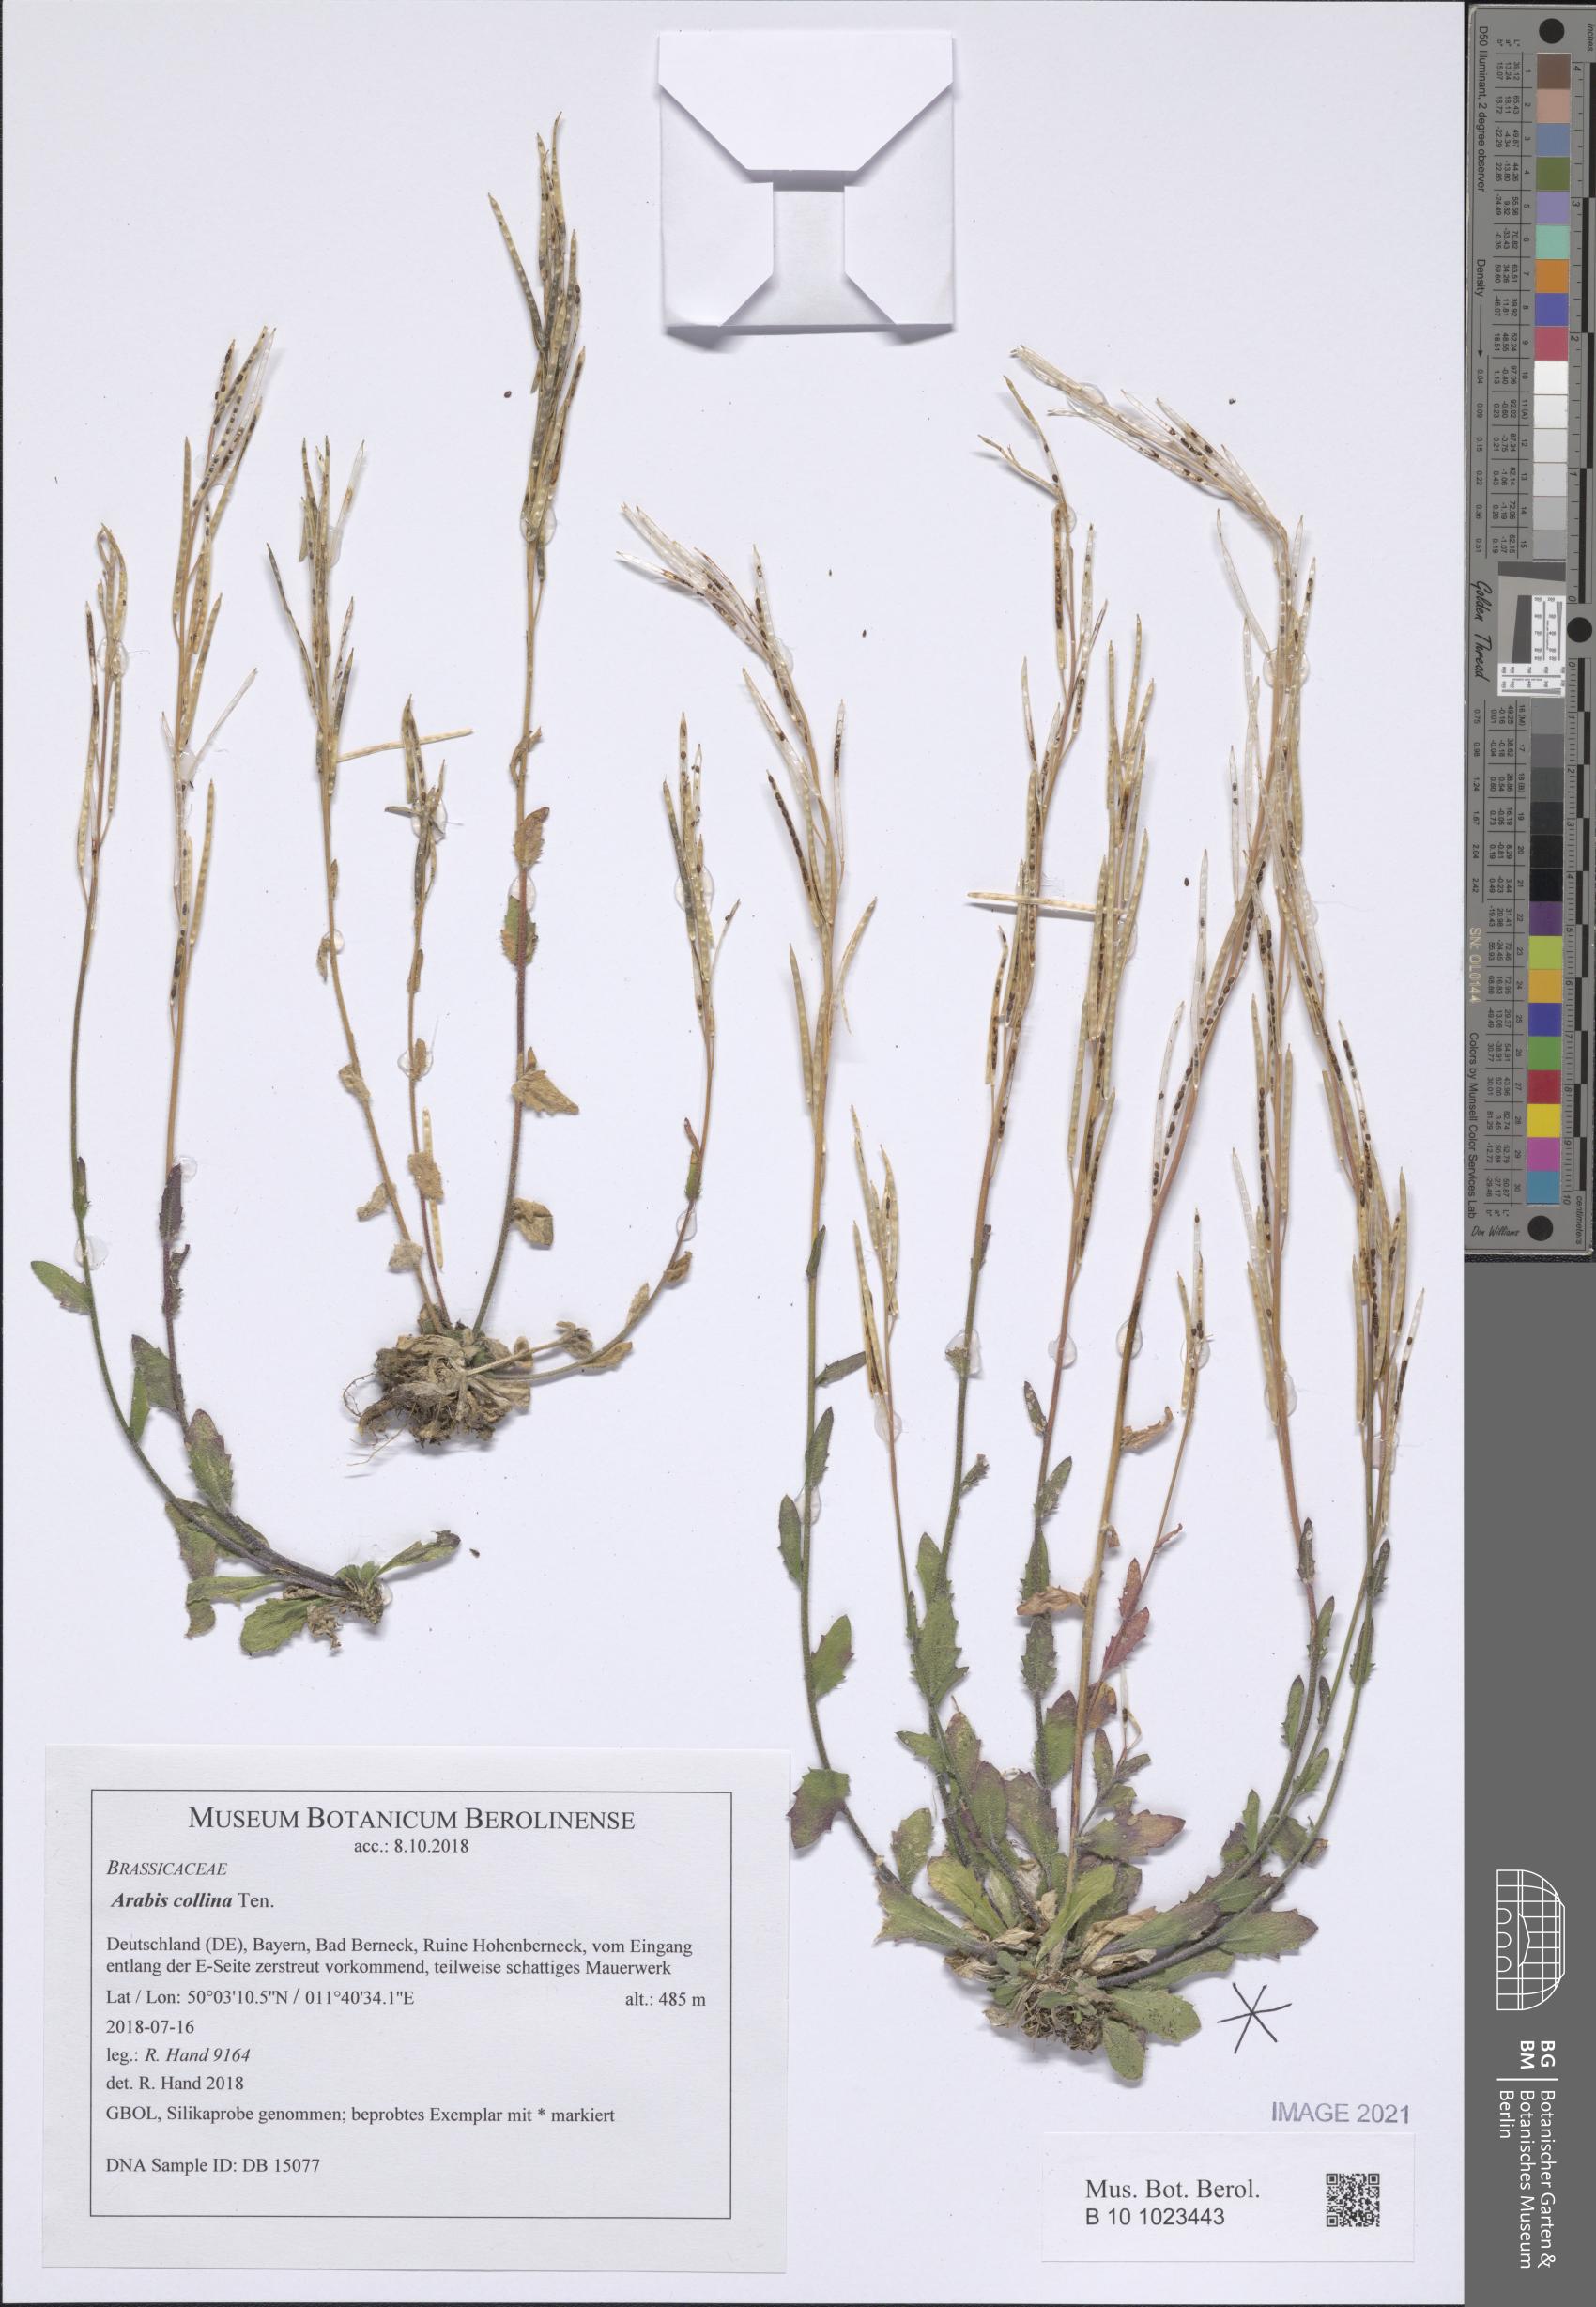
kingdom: Plantae
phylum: Tracheophyta
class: Magnoliopsida
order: Brassicales
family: Brassicaceae
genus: Arabis
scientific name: Arabis collina
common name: Rosy cress
